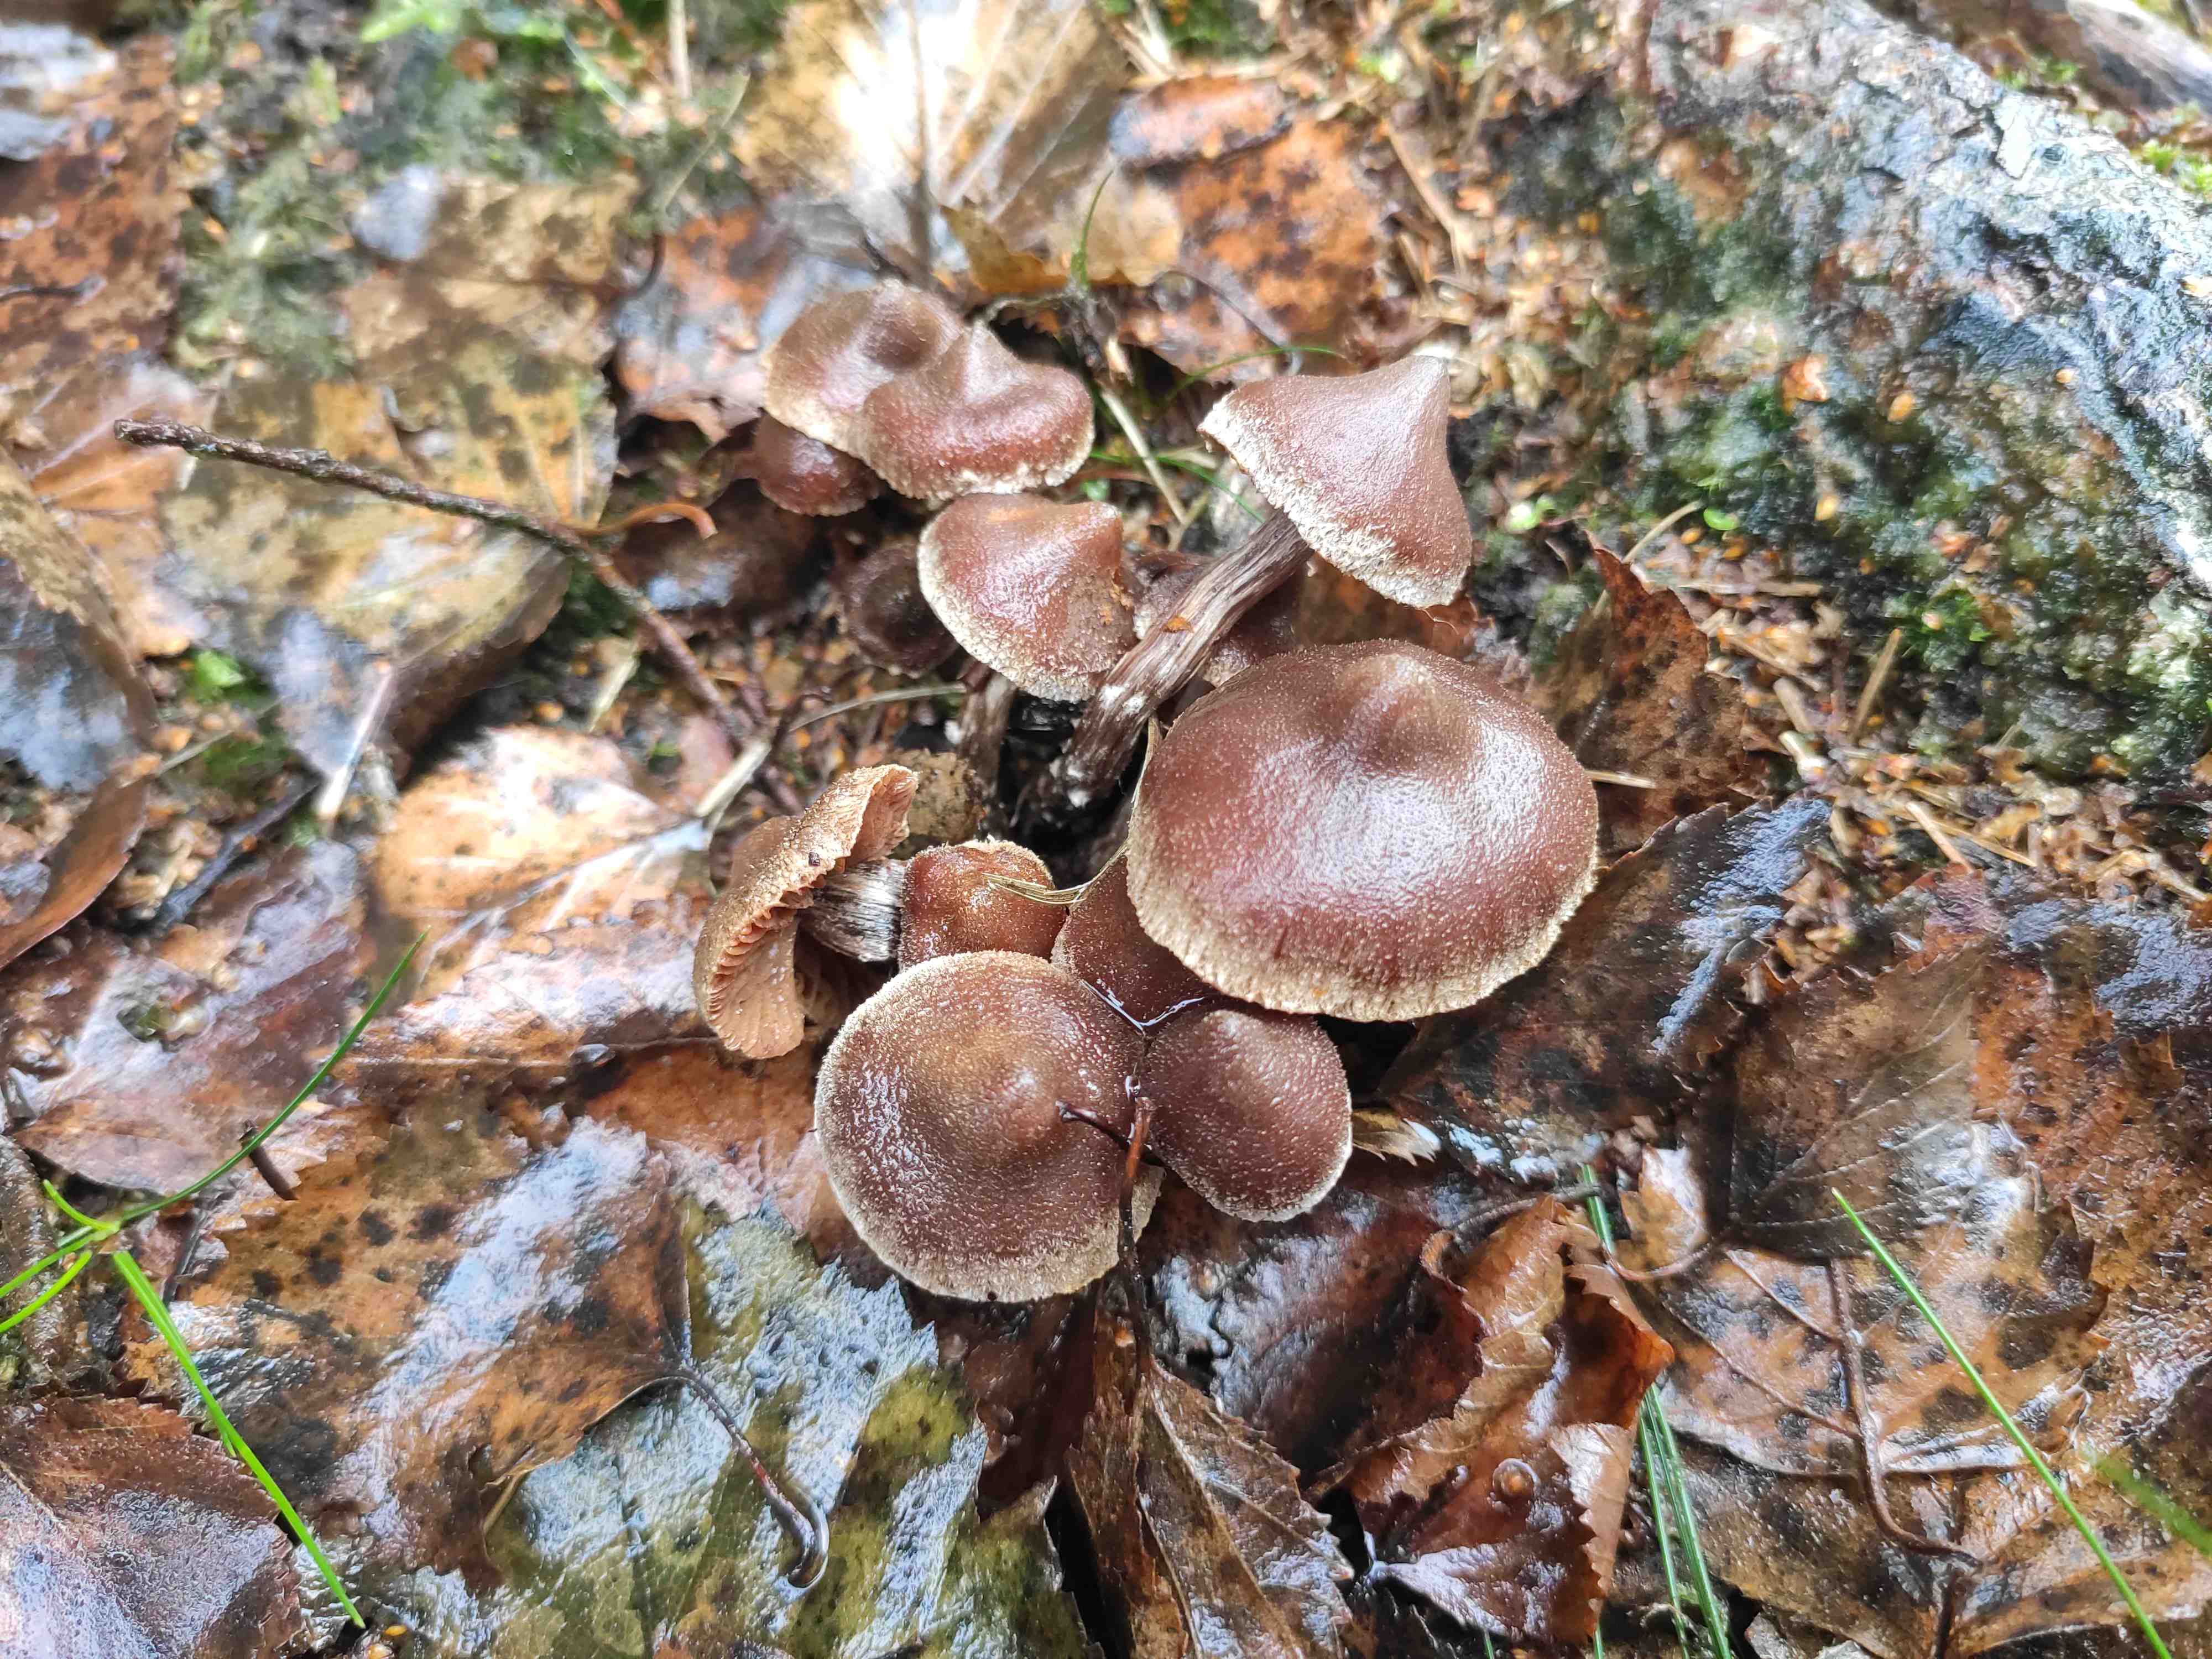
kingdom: Fungi
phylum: Basidiomycota
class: Agaricomycetes
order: Agaricales
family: Cortinariaceae
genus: Cortinarius
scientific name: Cortinarius flexipes
